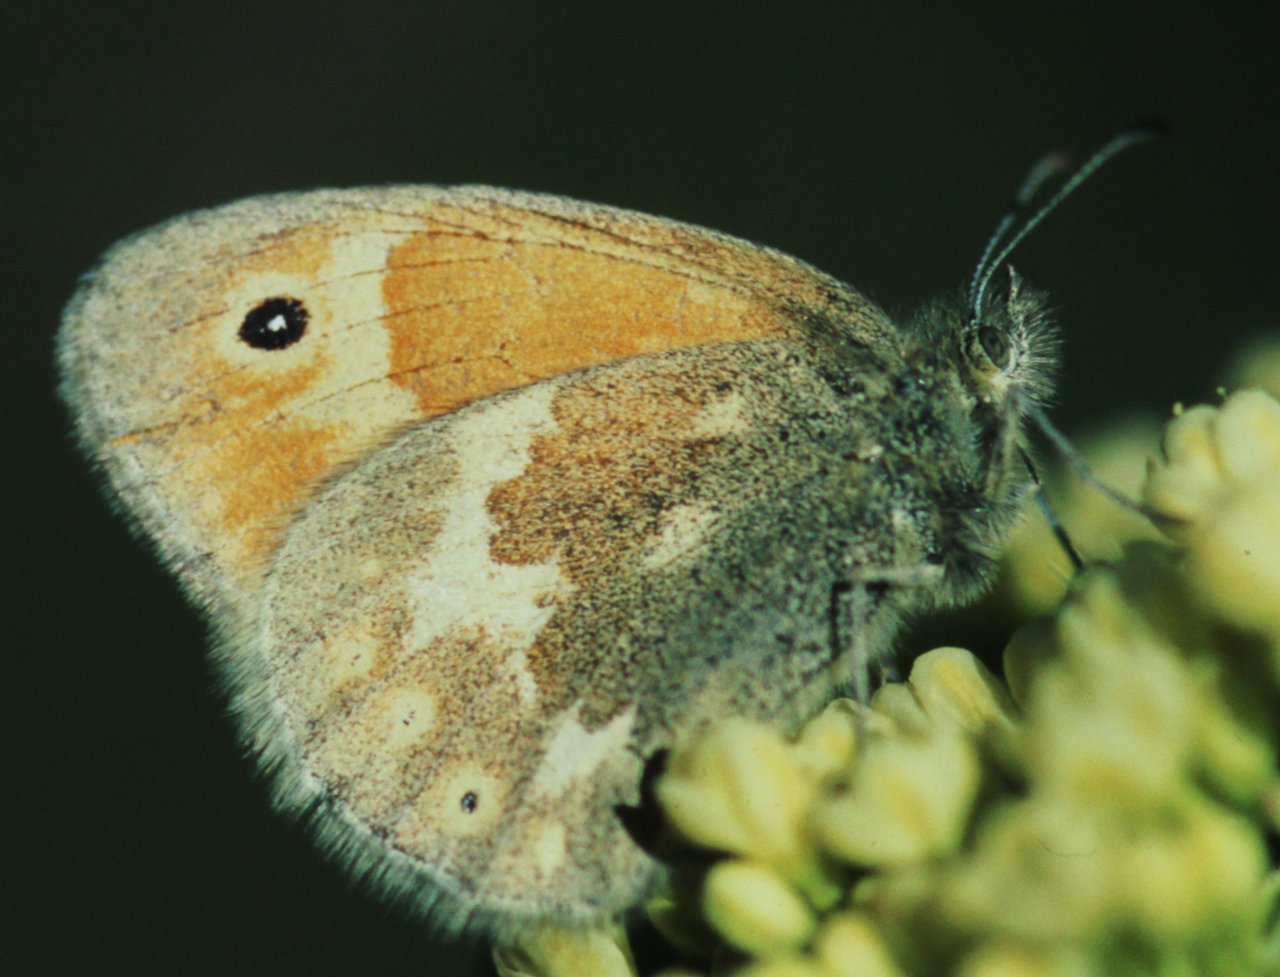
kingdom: Animalia
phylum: Arthropoda
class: Insecta
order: Lepidoptera
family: Nymphalidae
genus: Coenonympha
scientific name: Coenonympha tullia
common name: Large Heath
